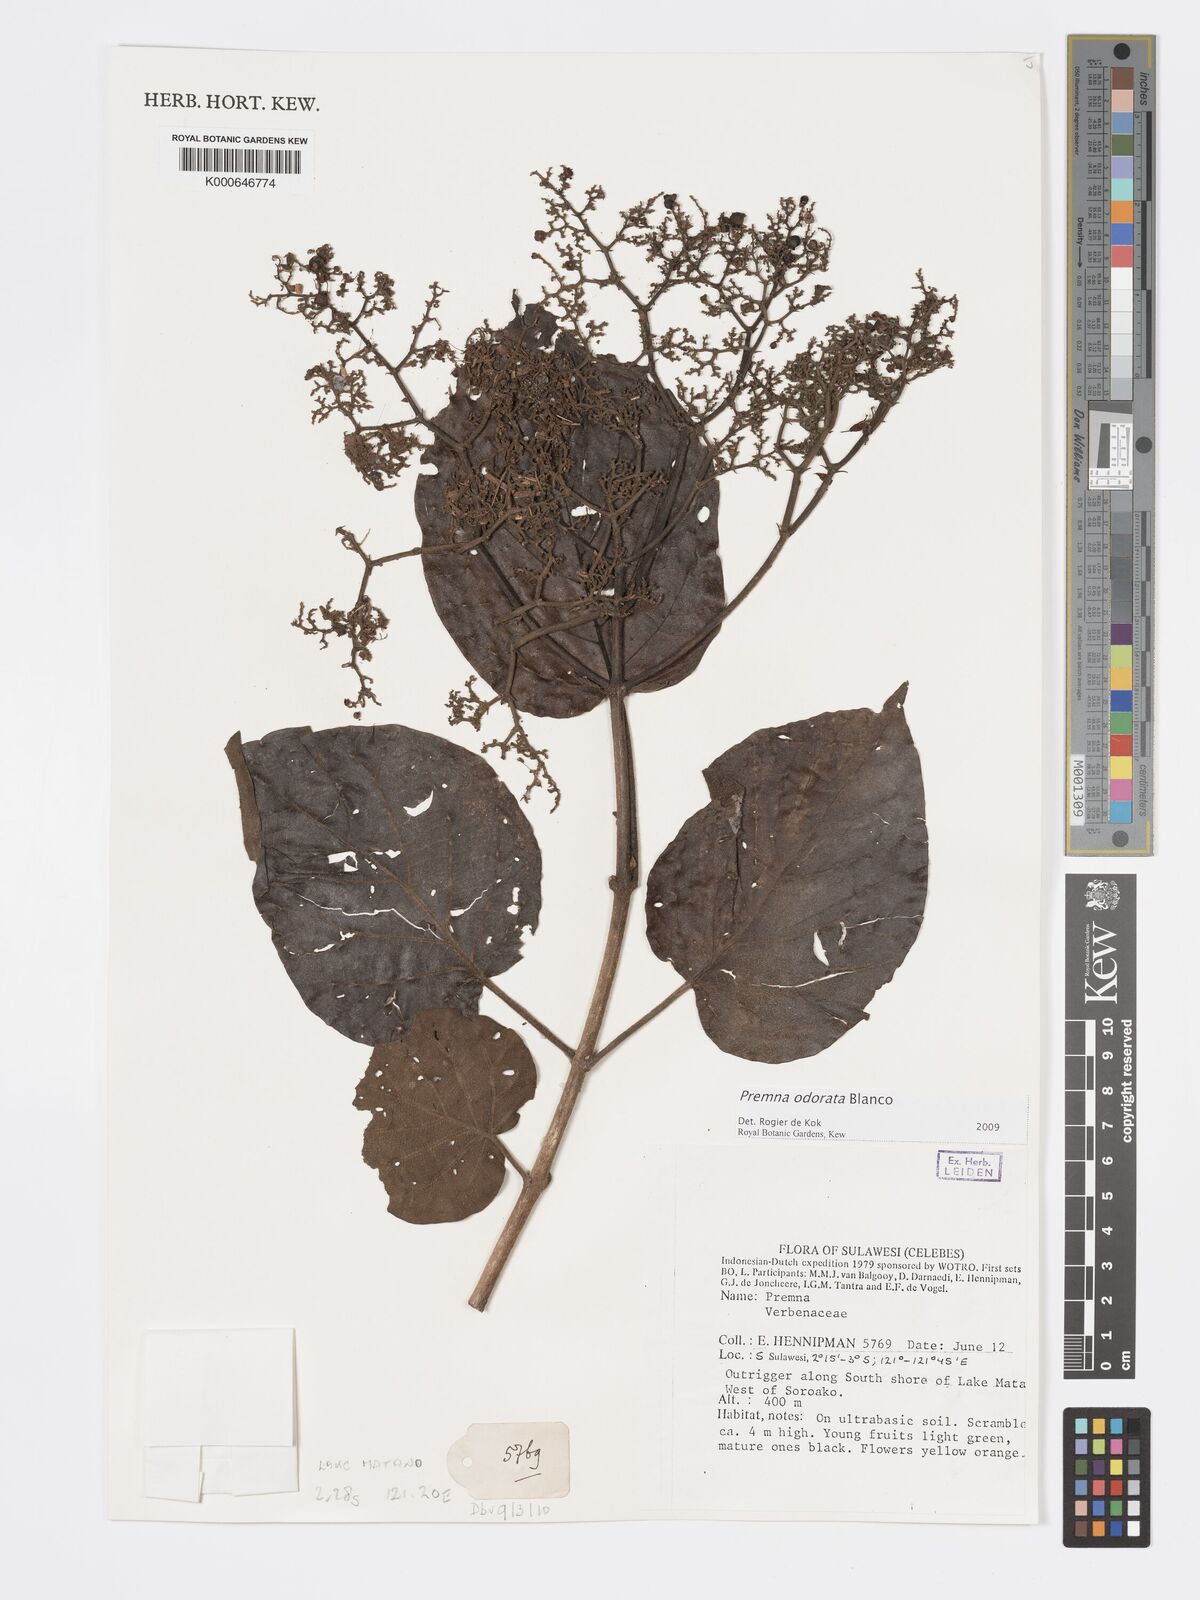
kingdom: Plantae
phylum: Tracheophyta
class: Magnoliopsida
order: Lamiales
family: Lamiaceae
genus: Premna
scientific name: Premna odorata
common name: Fragrant premna
